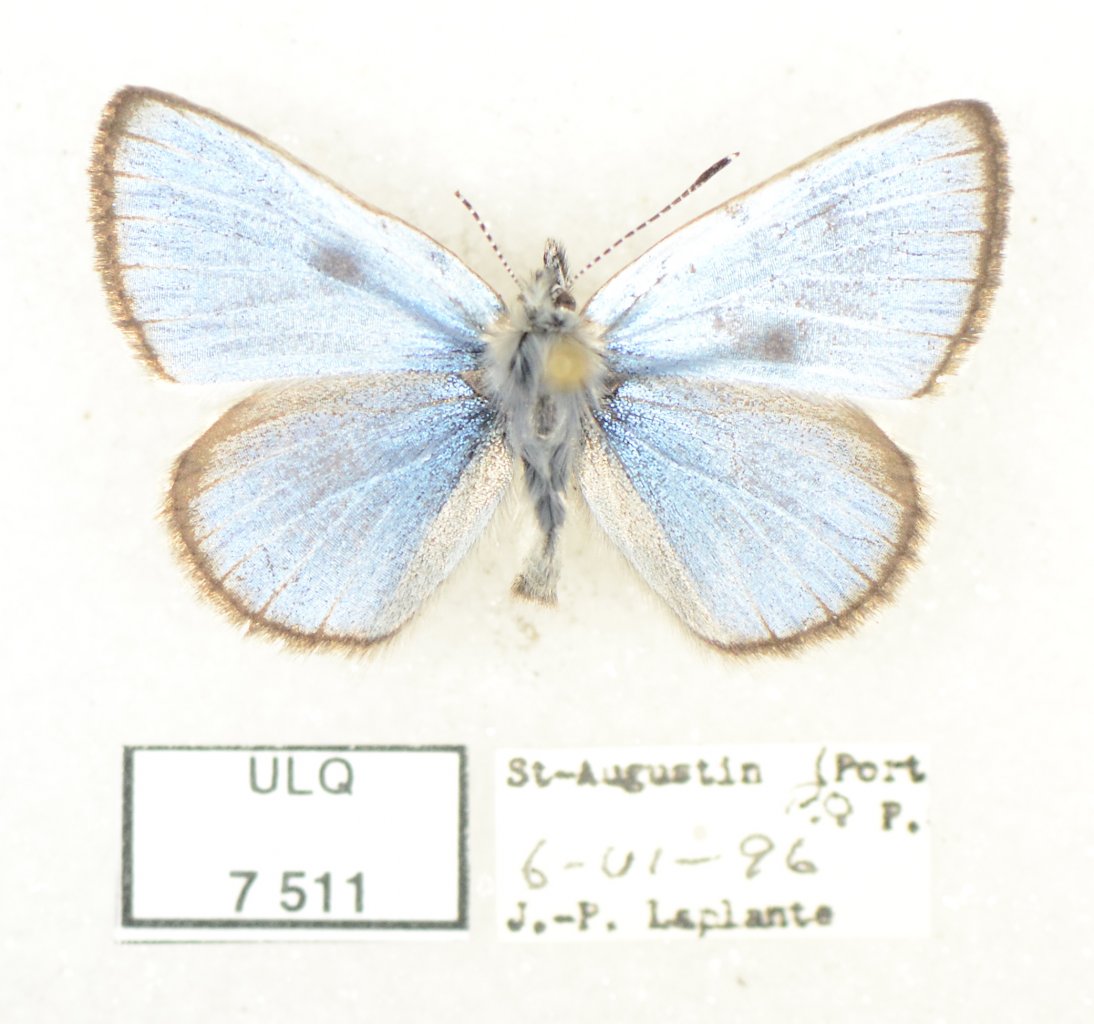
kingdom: Animalia
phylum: Arthropoda
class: Insecta
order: Lepidoptera
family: Lycaenidae
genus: Glaucopsyche
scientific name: Glaucopsyche lygdamus
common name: Silvery Blue
